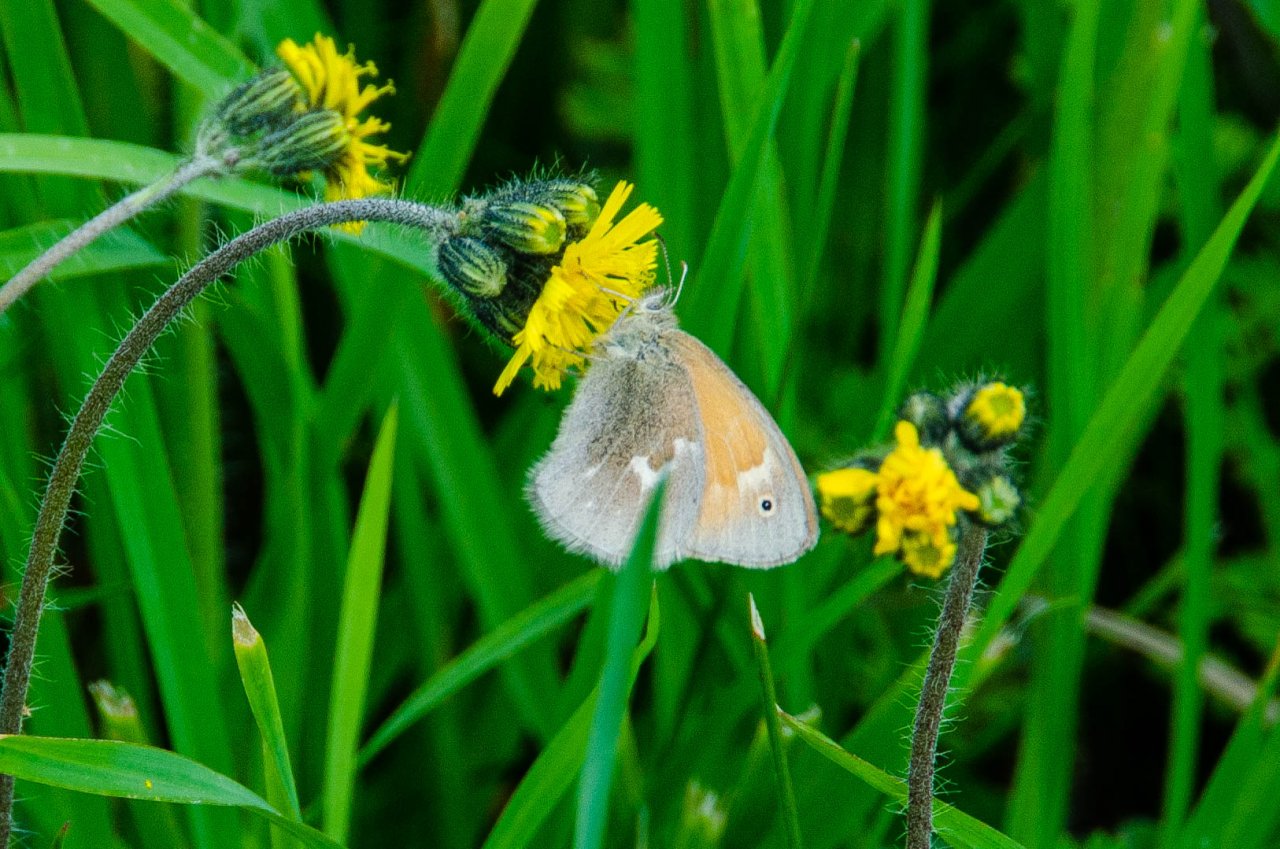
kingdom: Animalia
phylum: Arthropoda
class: Insecta
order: Lepidoptera
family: Nymphalidae
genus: Coenonympha
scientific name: Coenonympha tullia
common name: Large Heath
